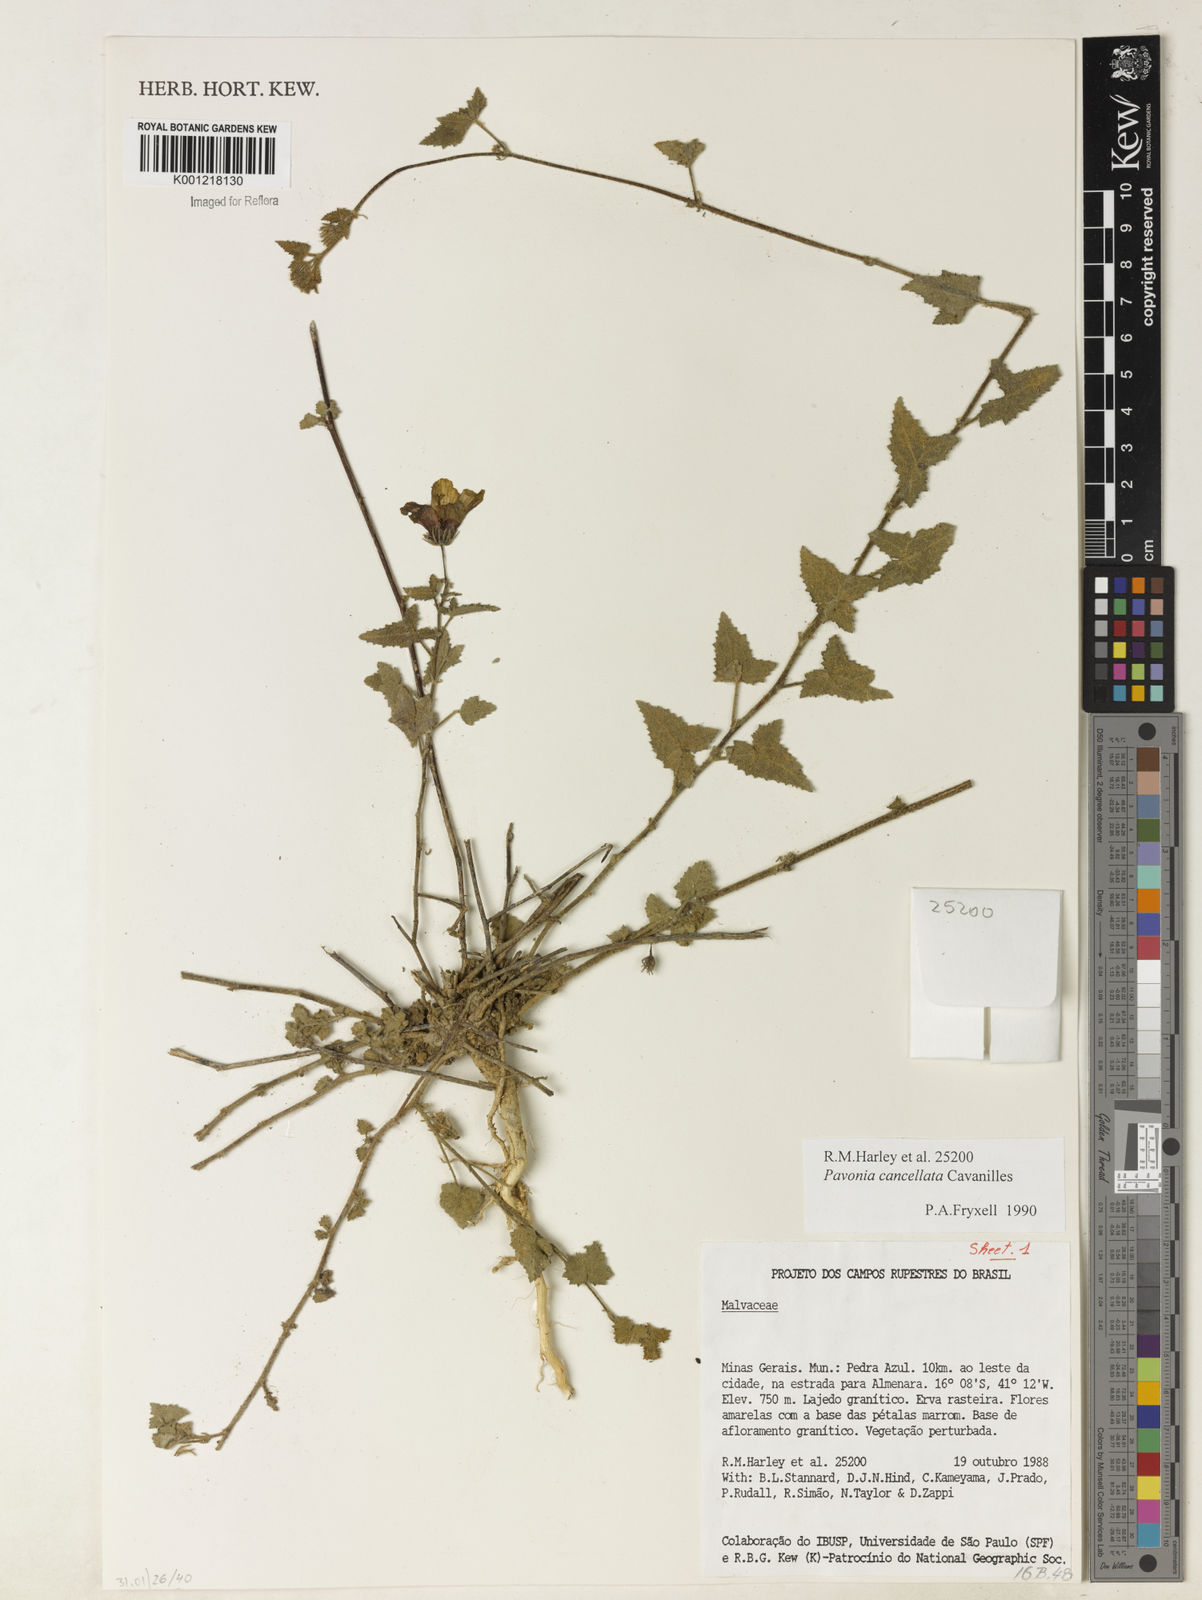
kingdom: Plantae
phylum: Tracheophyta
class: Magnoliopsida
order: Malvales
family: Malvaceae
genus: Pavonia
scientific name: Pavonia cancellata
